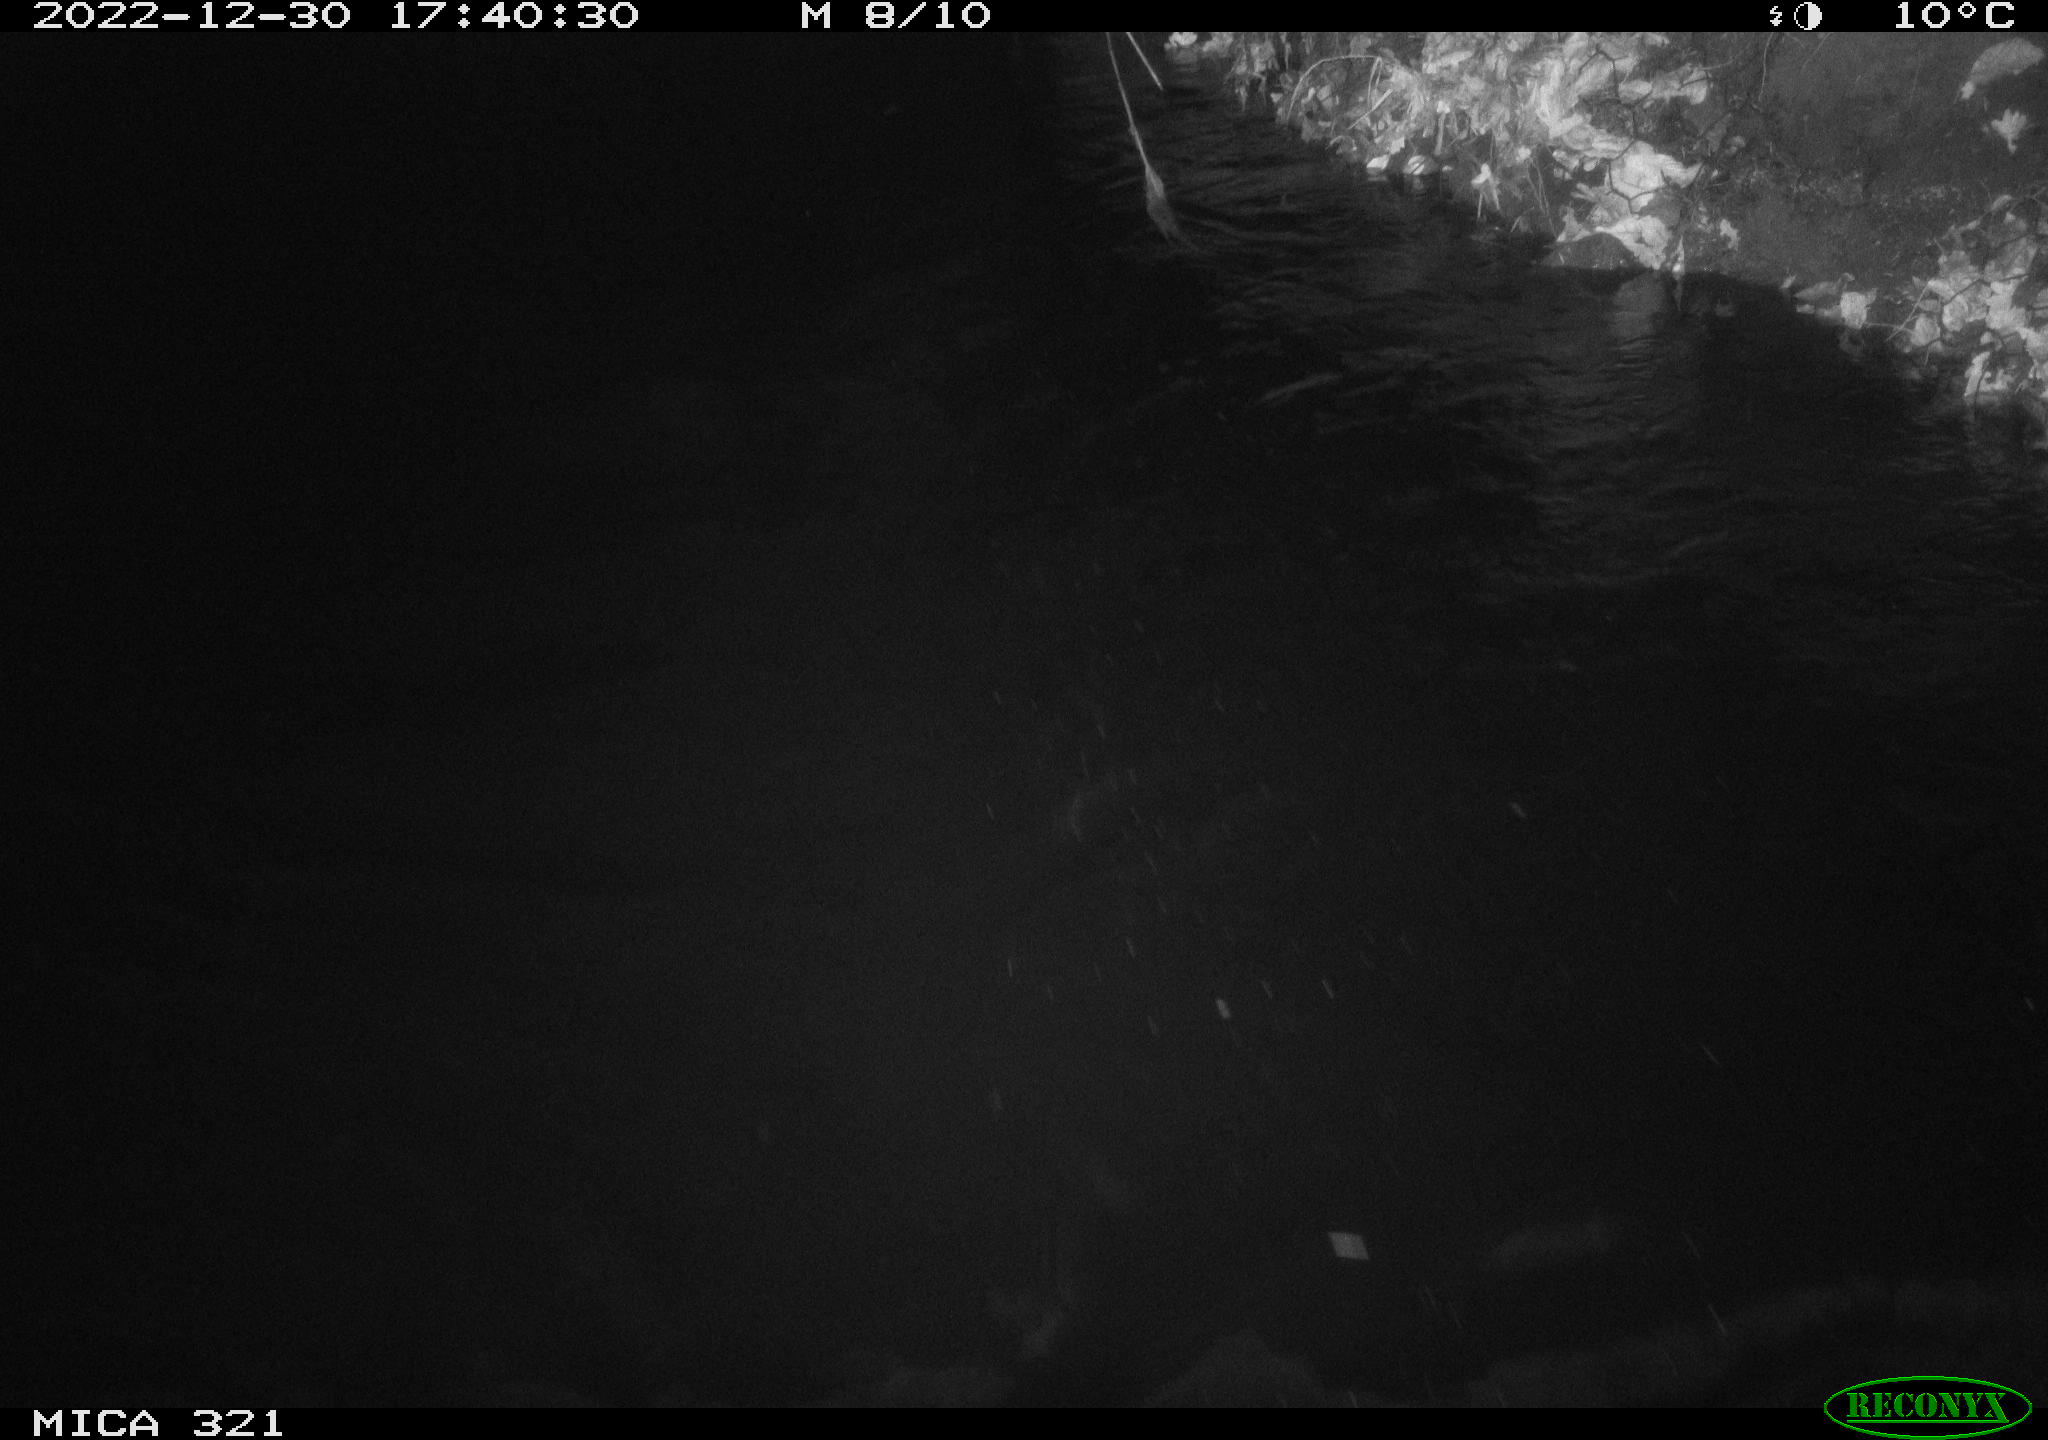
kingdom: Animalia
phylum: Chordata
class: Aves
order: Anseriformes
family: Anatidae
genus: Anas
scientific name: Anas
